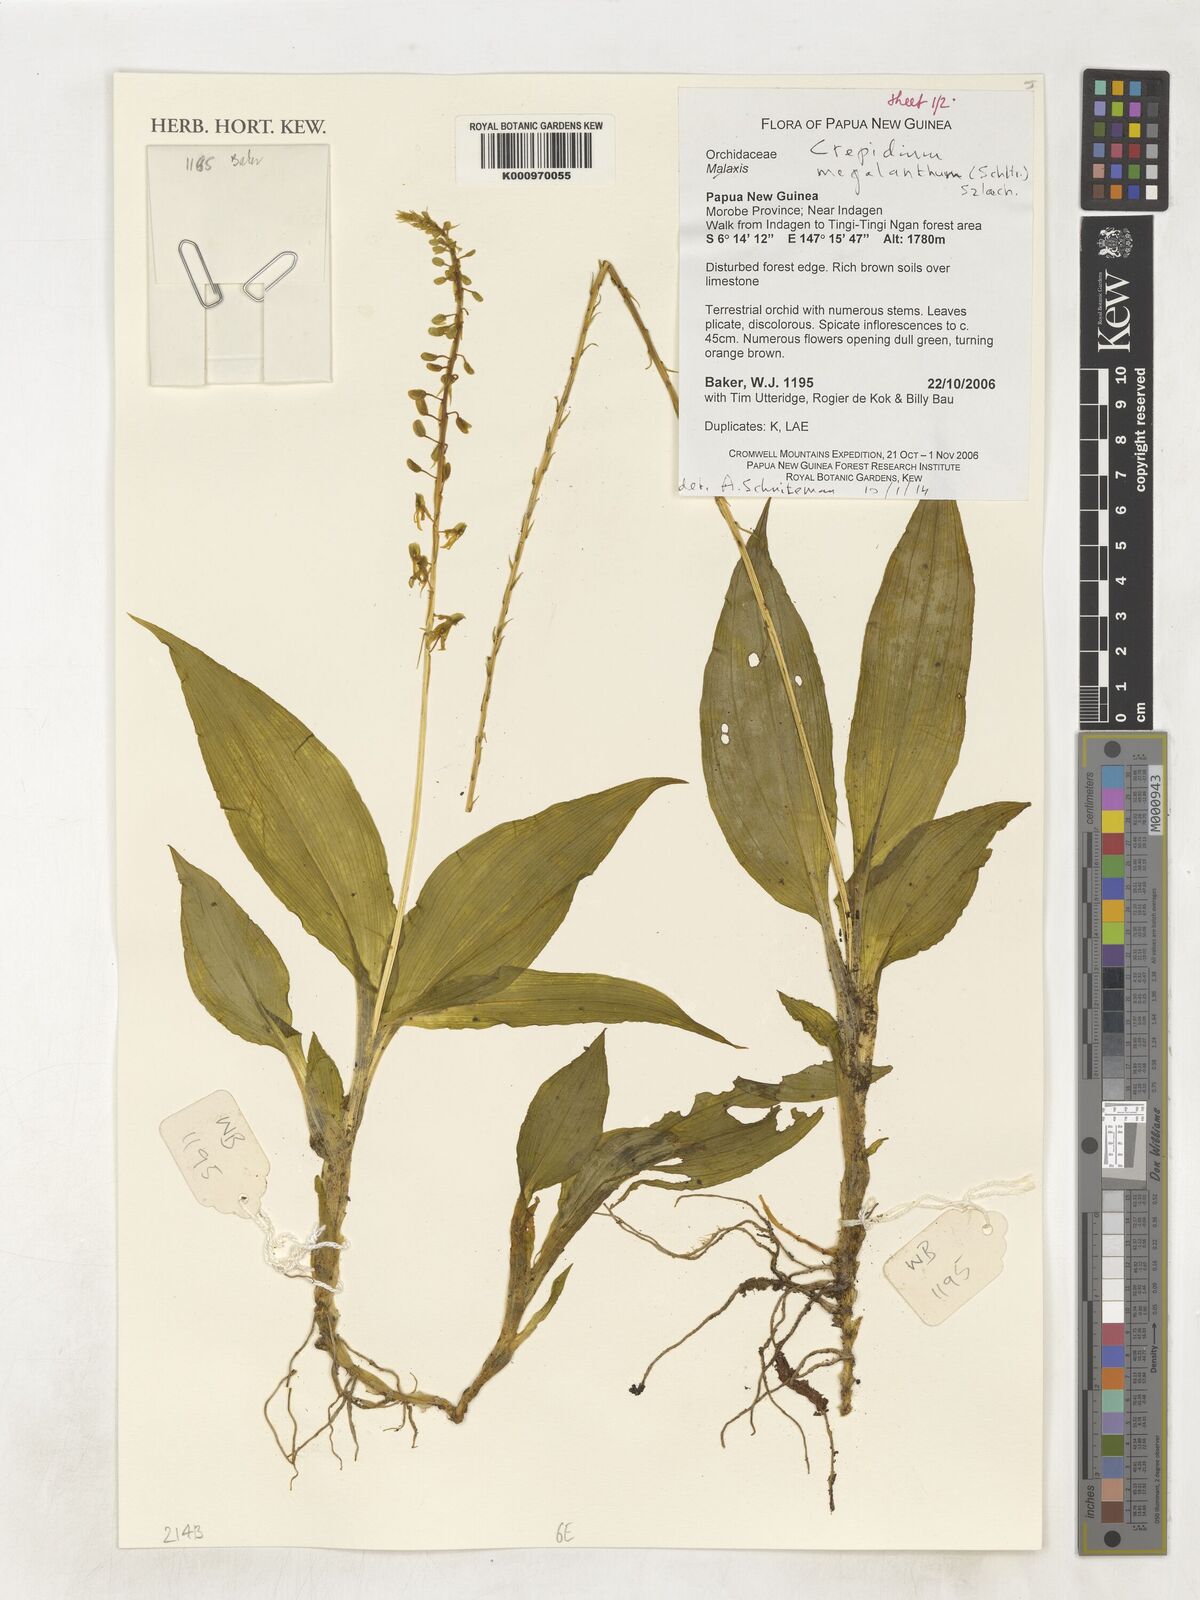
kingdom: Plantae
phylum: Tracheophyta
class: Liliopsida
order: Asparagales
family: Orchidaceae
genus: Crepidium
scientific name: Crepidium megalanthum
